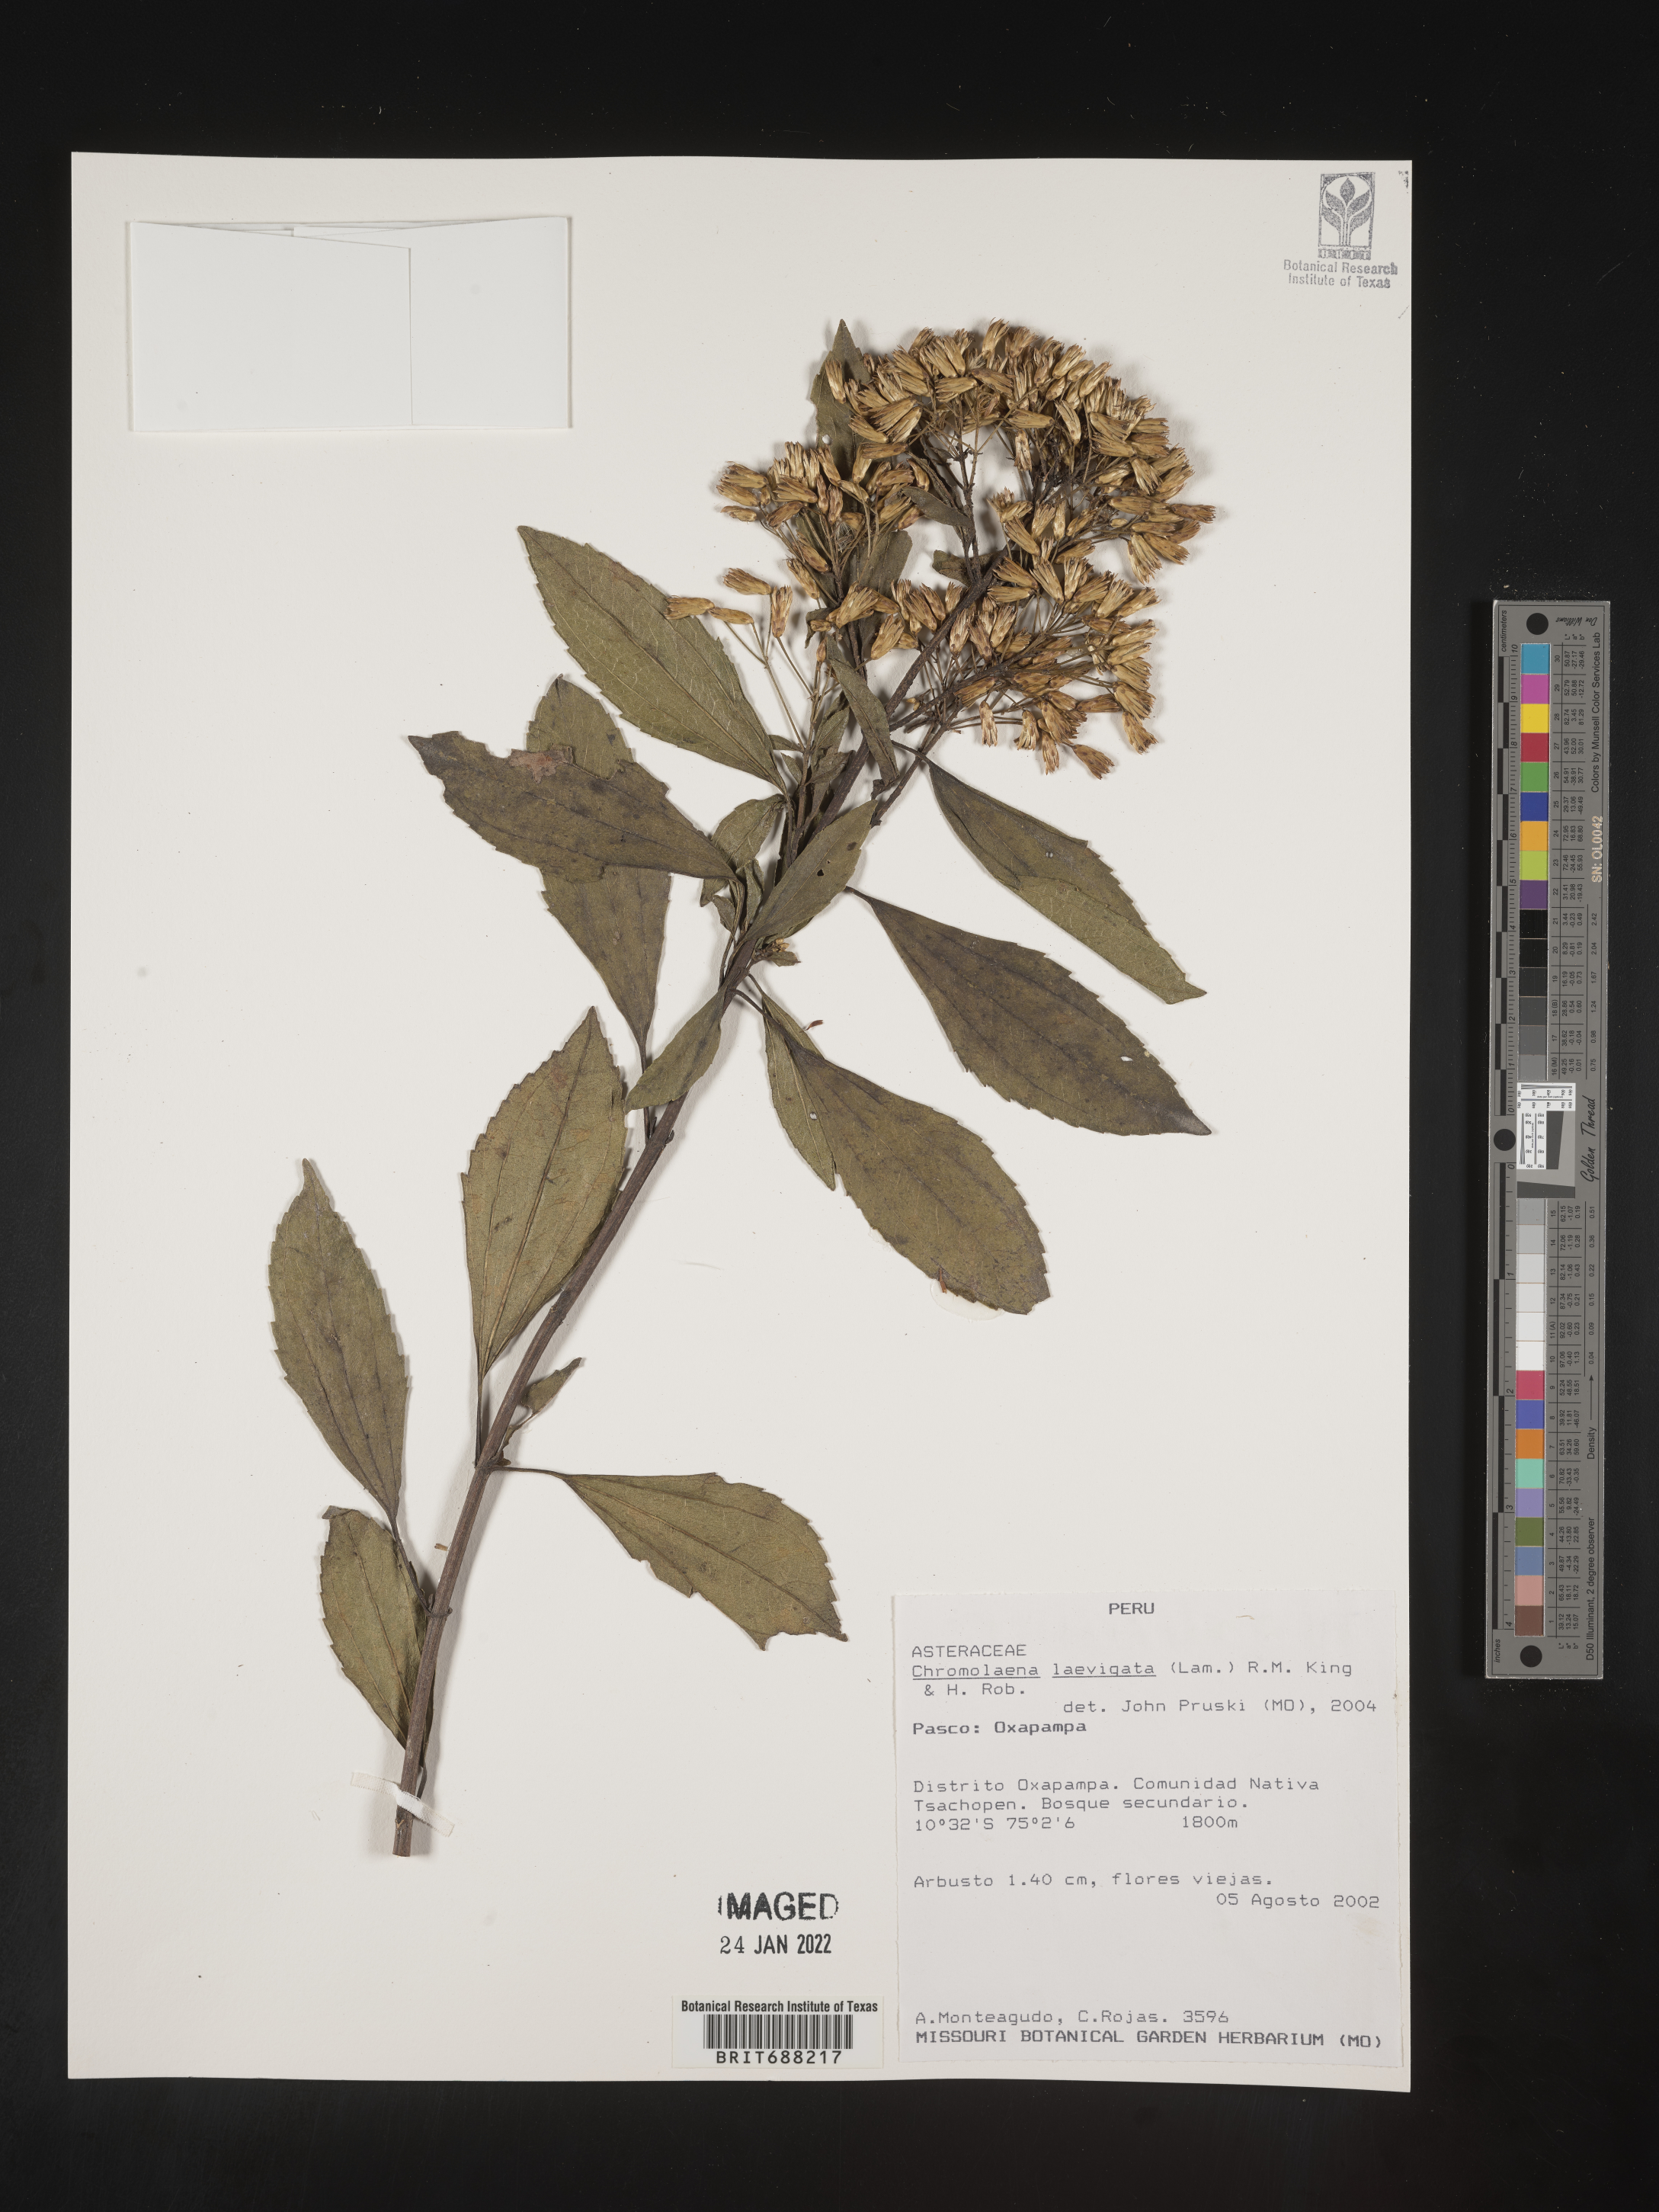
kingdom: Plantae
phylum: Tracheophyta
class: Magnoliopsida
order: Asterales
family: Asteraceae
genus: Chromolaena
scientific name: Chromolaena
